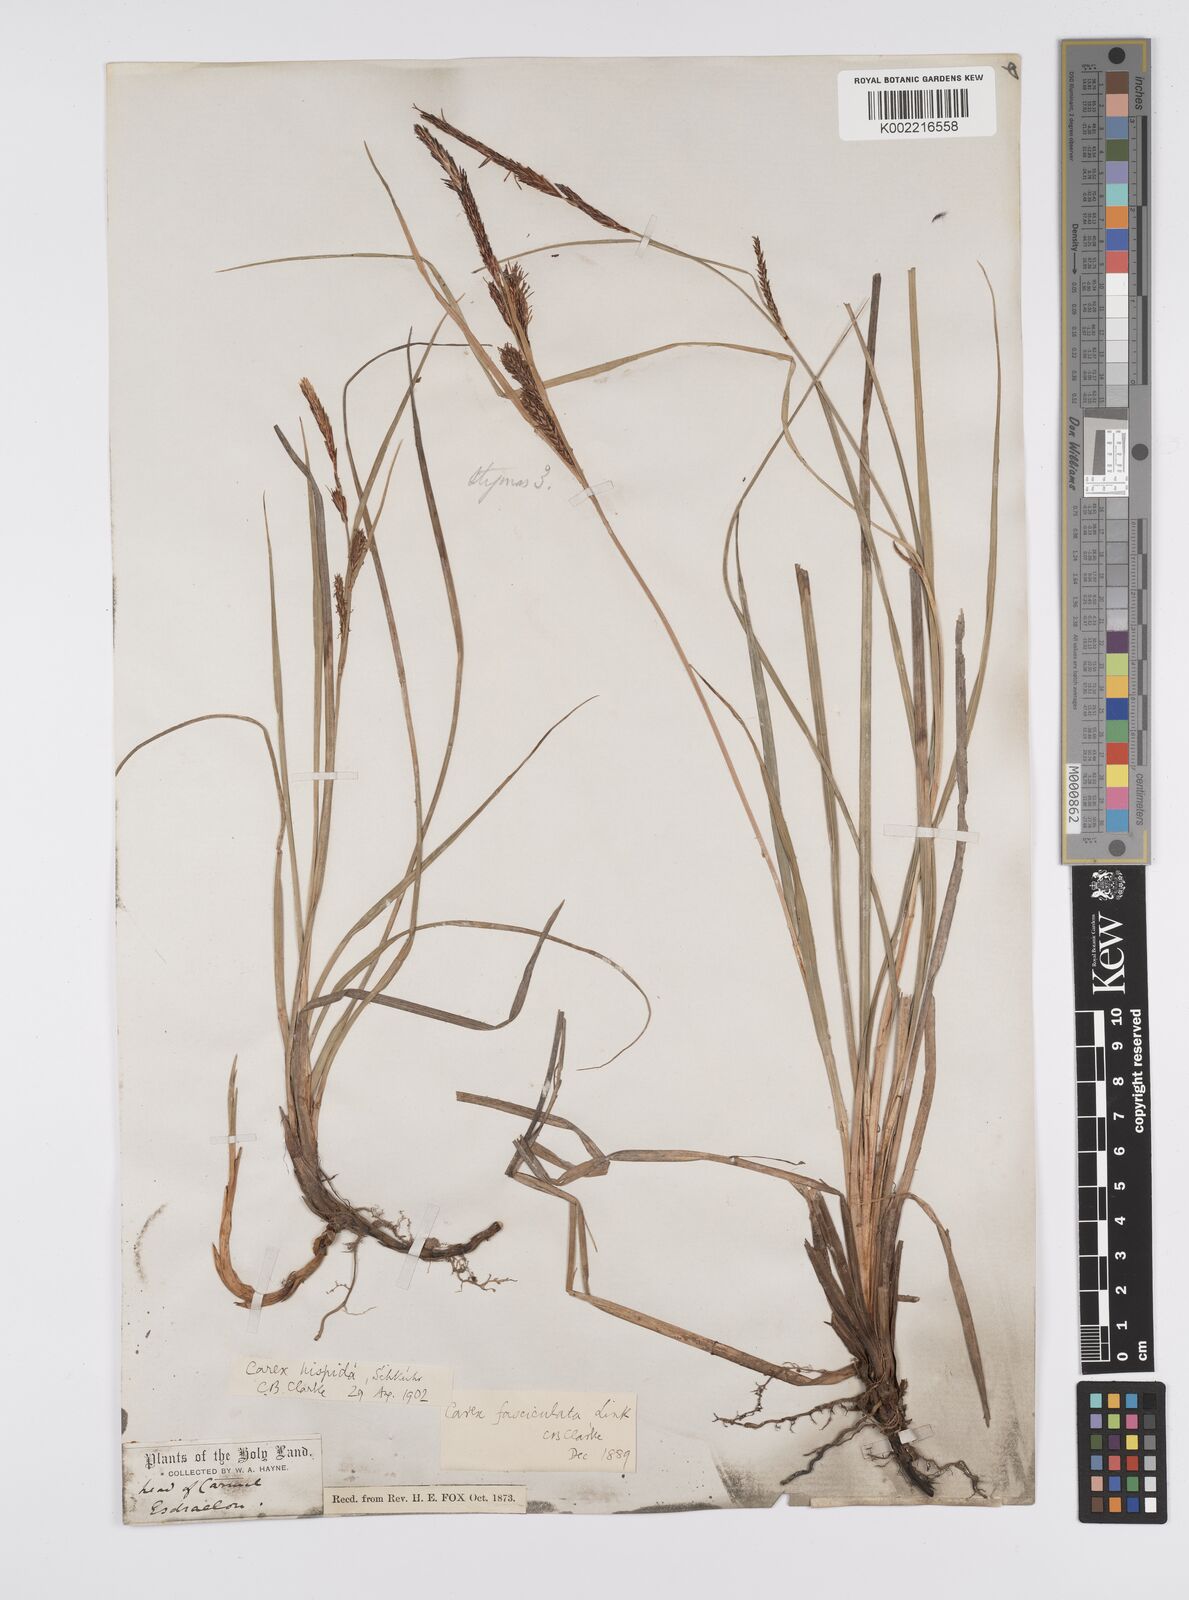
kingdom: Plantae
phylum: Tracheophyta
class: Liliopsida
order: Poales
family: Cyperaceae
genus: Carex
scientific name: Carex flacca
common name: Glaucous sedge
